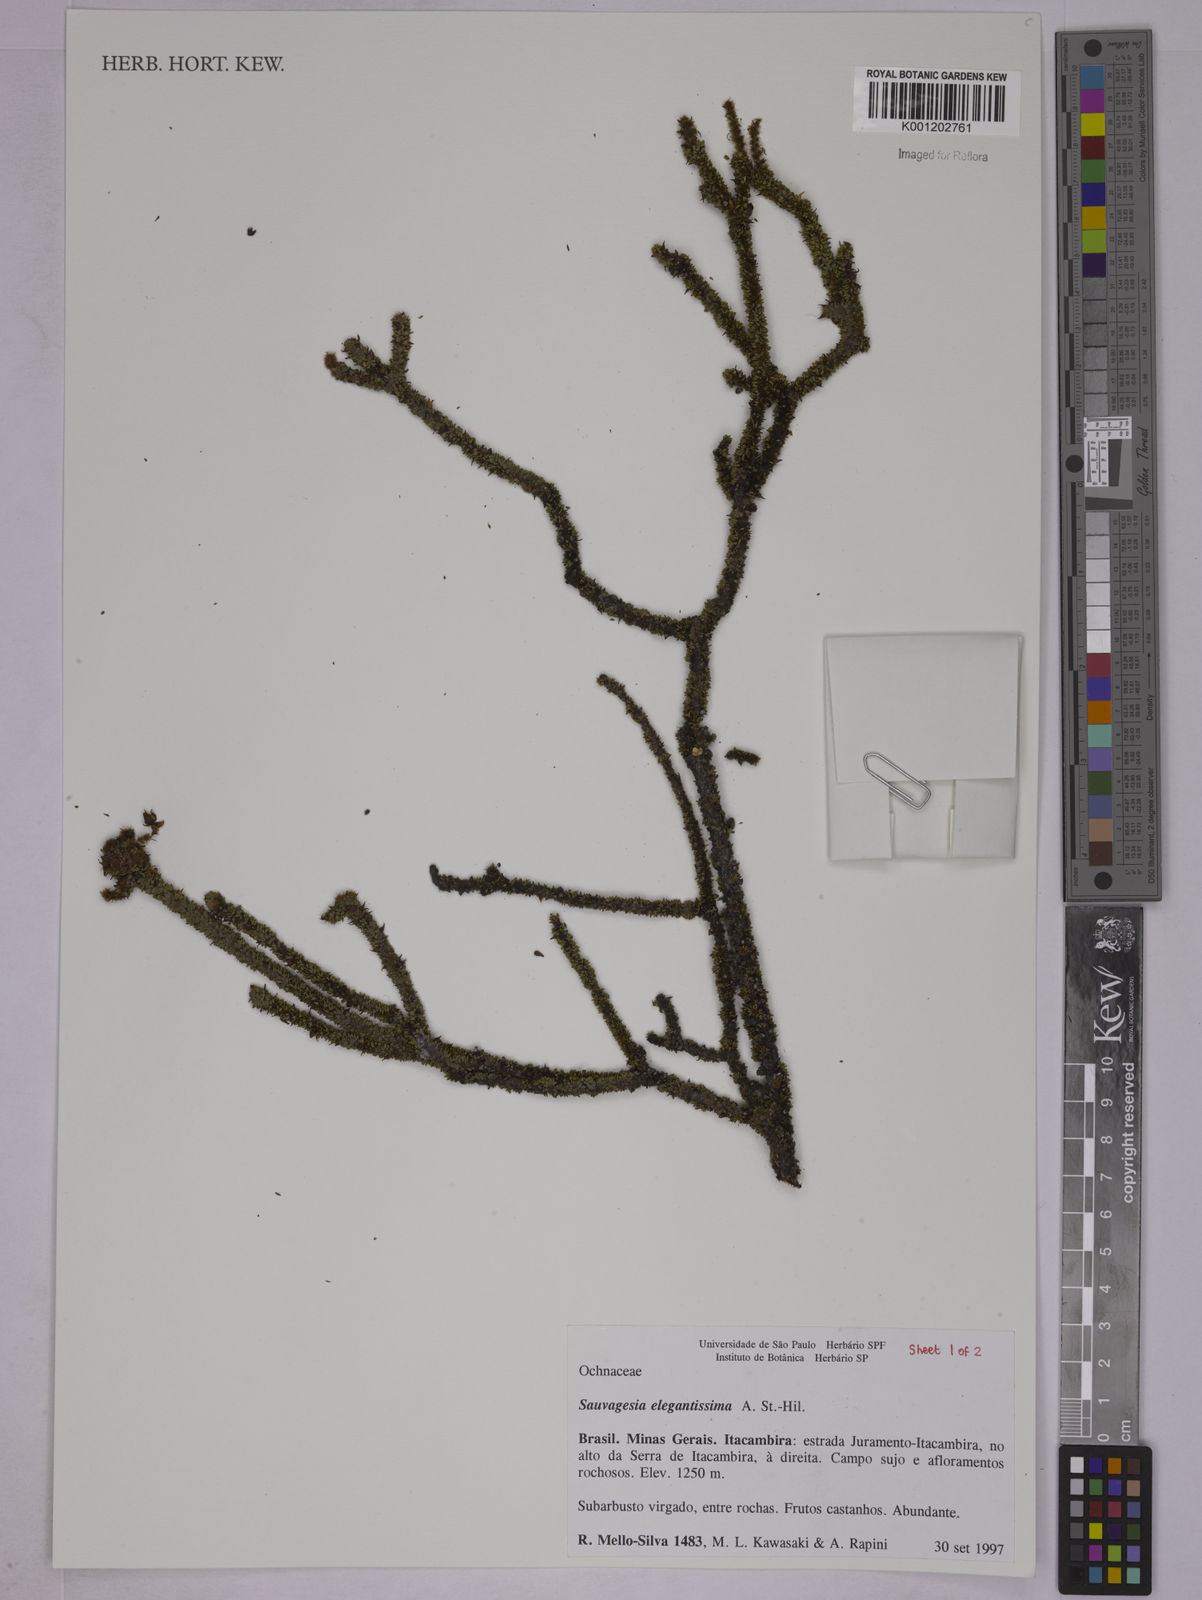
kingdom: Plantae
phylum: Tracheophyta
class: Magnoliopsida
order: Malpighiales
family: Ochnaceae
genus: Sauvagesia
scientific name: Sauvagesia elegantissima
